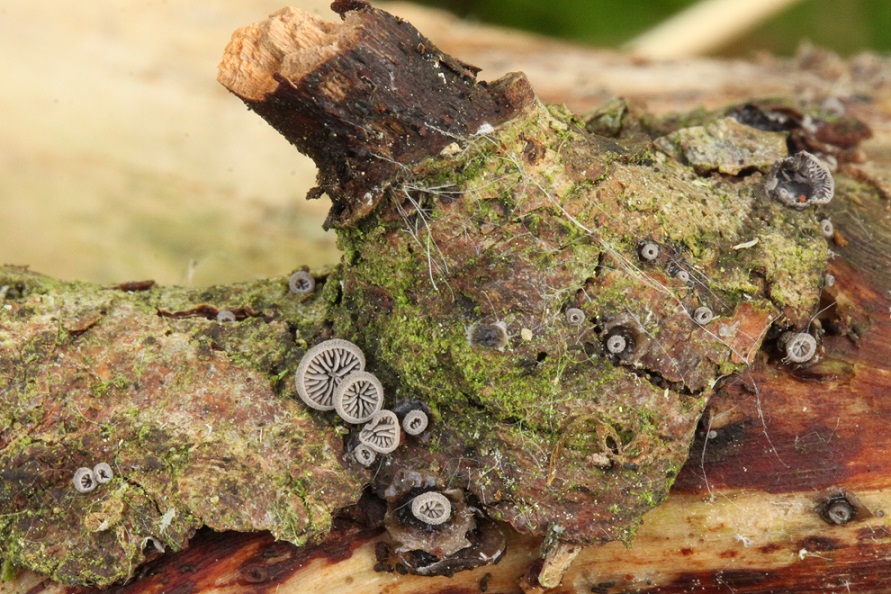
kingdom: Fungi
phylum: Basidiomycota
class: Agaricomycetes
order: Agaricales
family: Pleurotaceae
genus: Resupinatus
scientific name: Resupinatus applicatus
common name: lysfiltet barkhat
